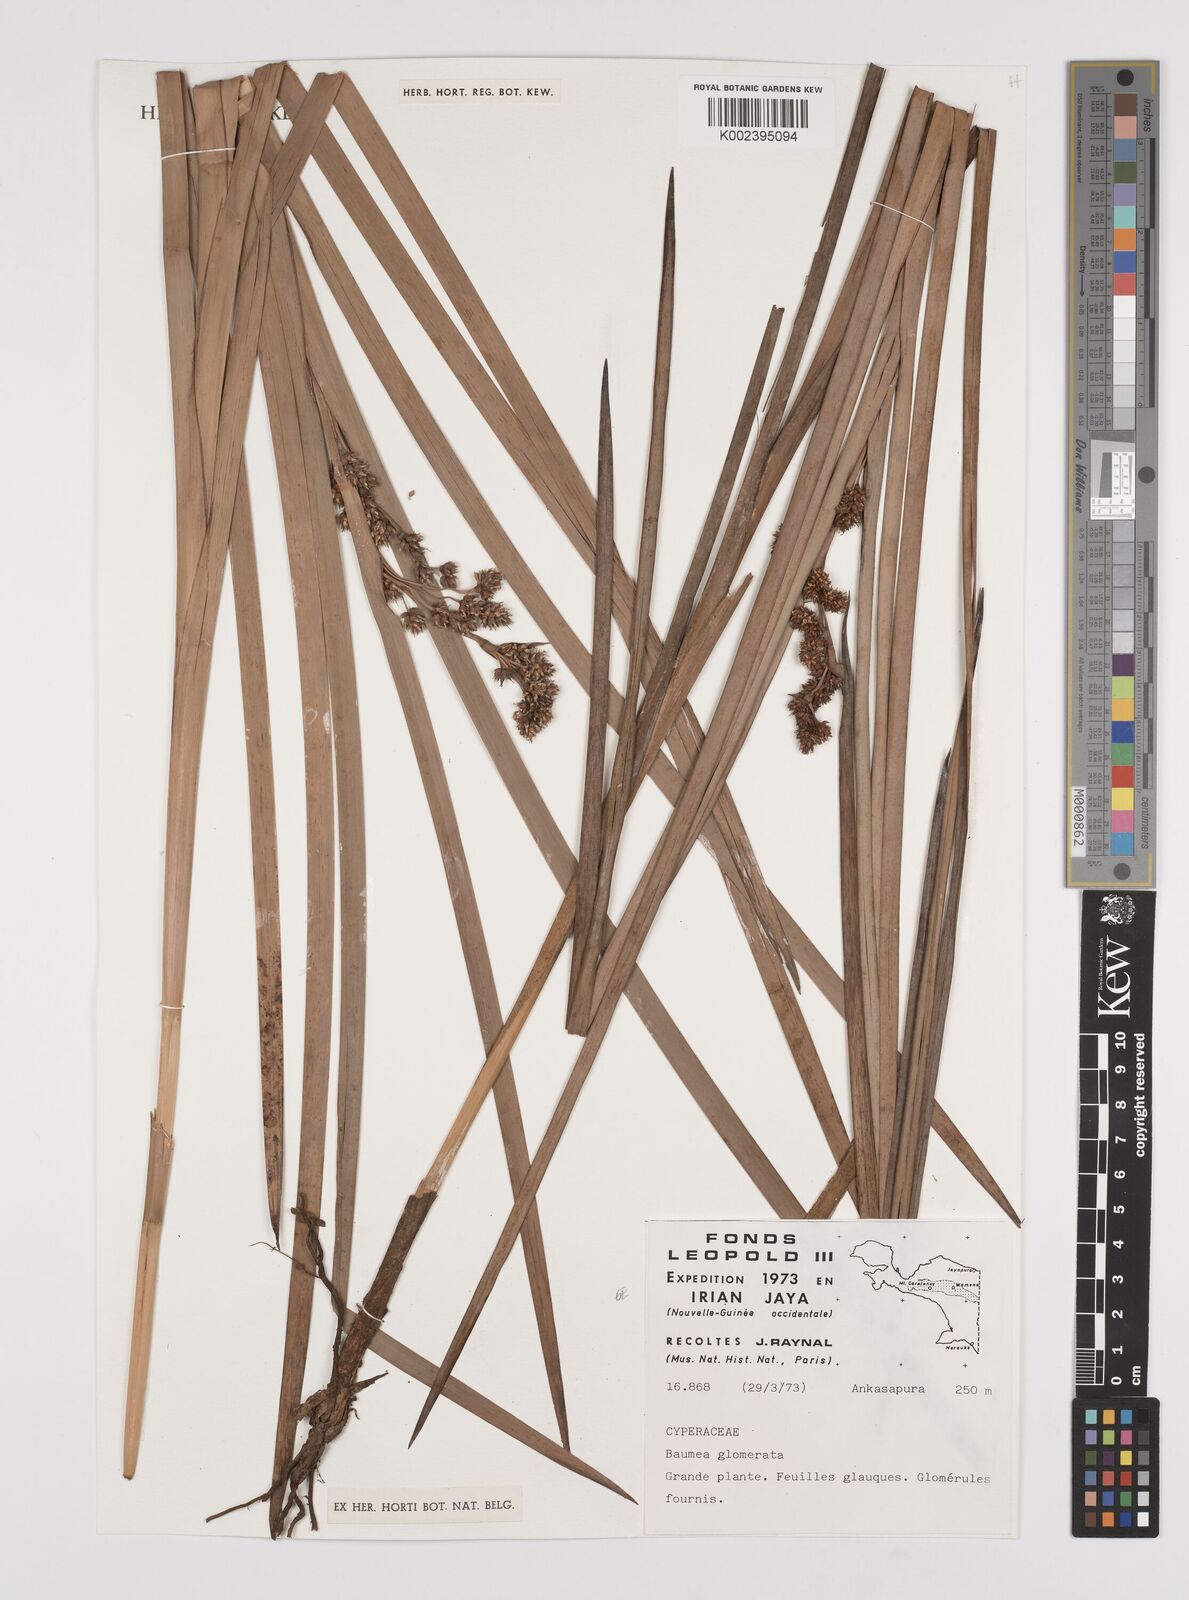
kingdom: Plantae
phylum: Tracheophyta
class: Liliopsida
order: Poales
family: Cyperaceae
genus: Machaerina
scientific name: Machaerina glomerata
